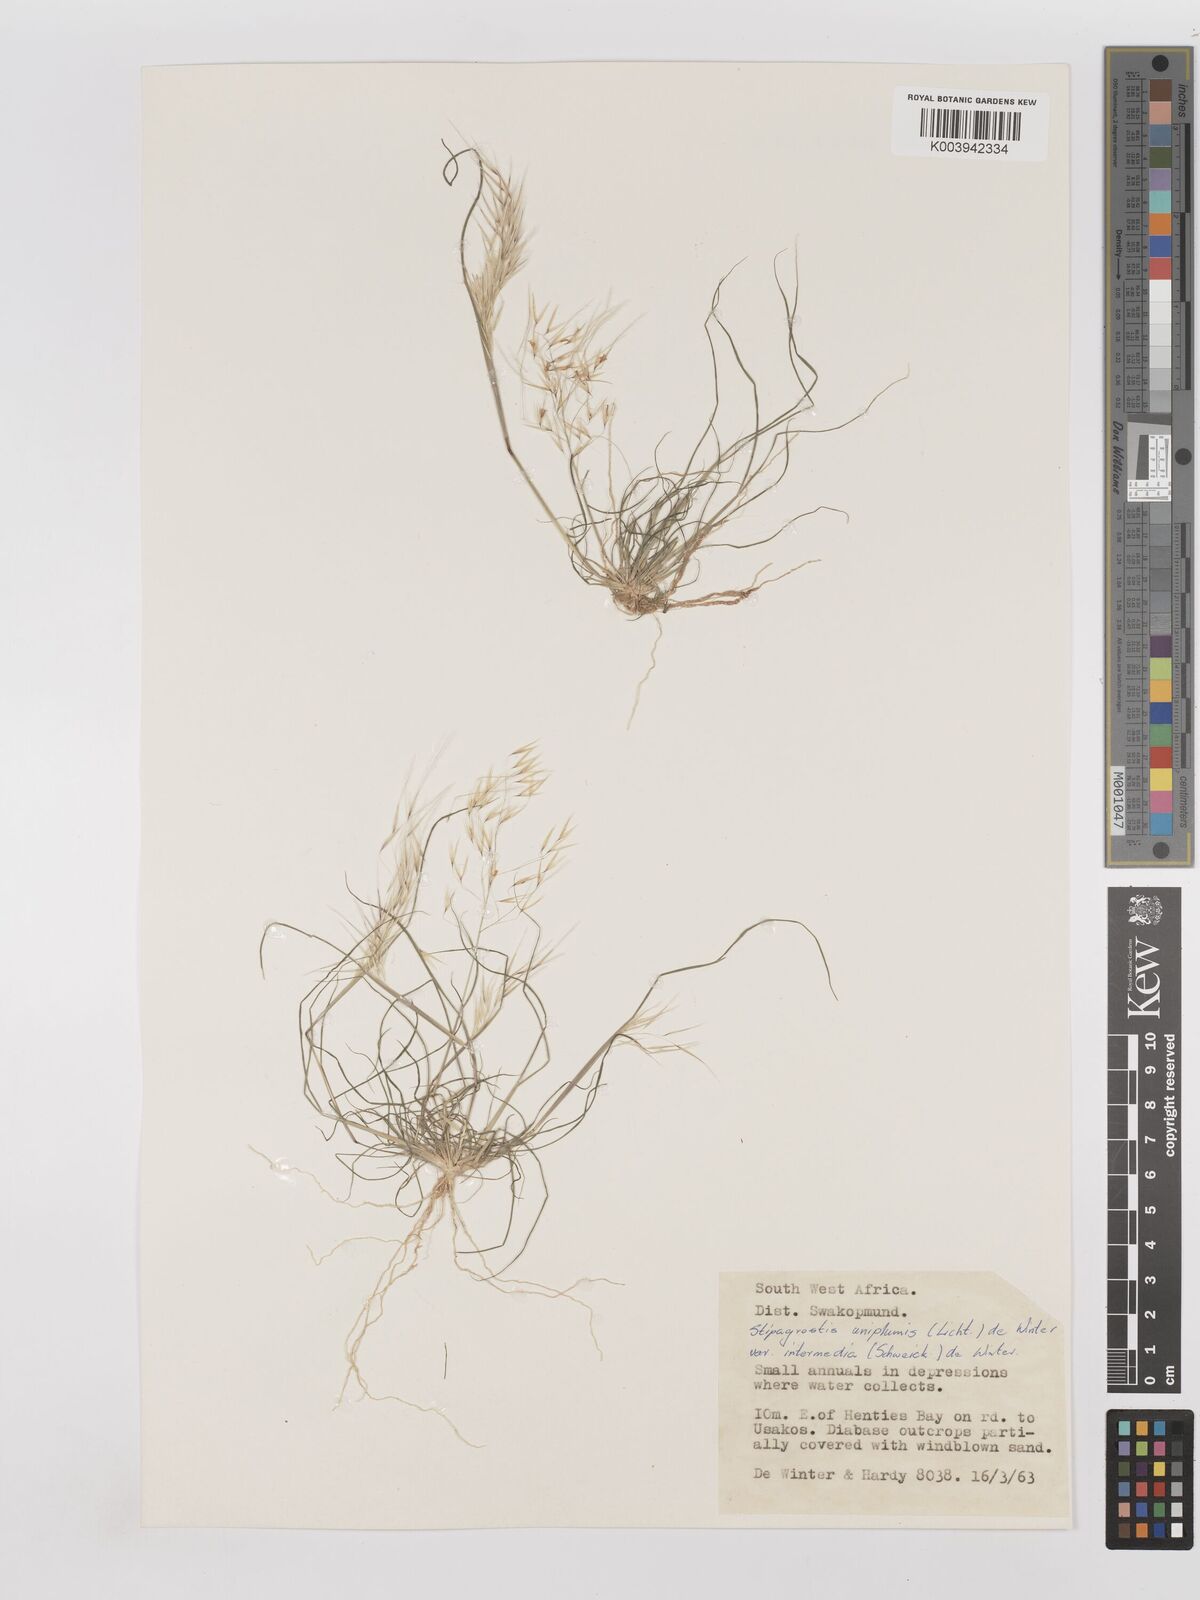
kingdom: Plantae
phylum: Tracheophyta
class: Liliopsida
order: Poales
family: Poaceae
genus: Stipagrostis
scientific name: Stipagrostis uniplumis
